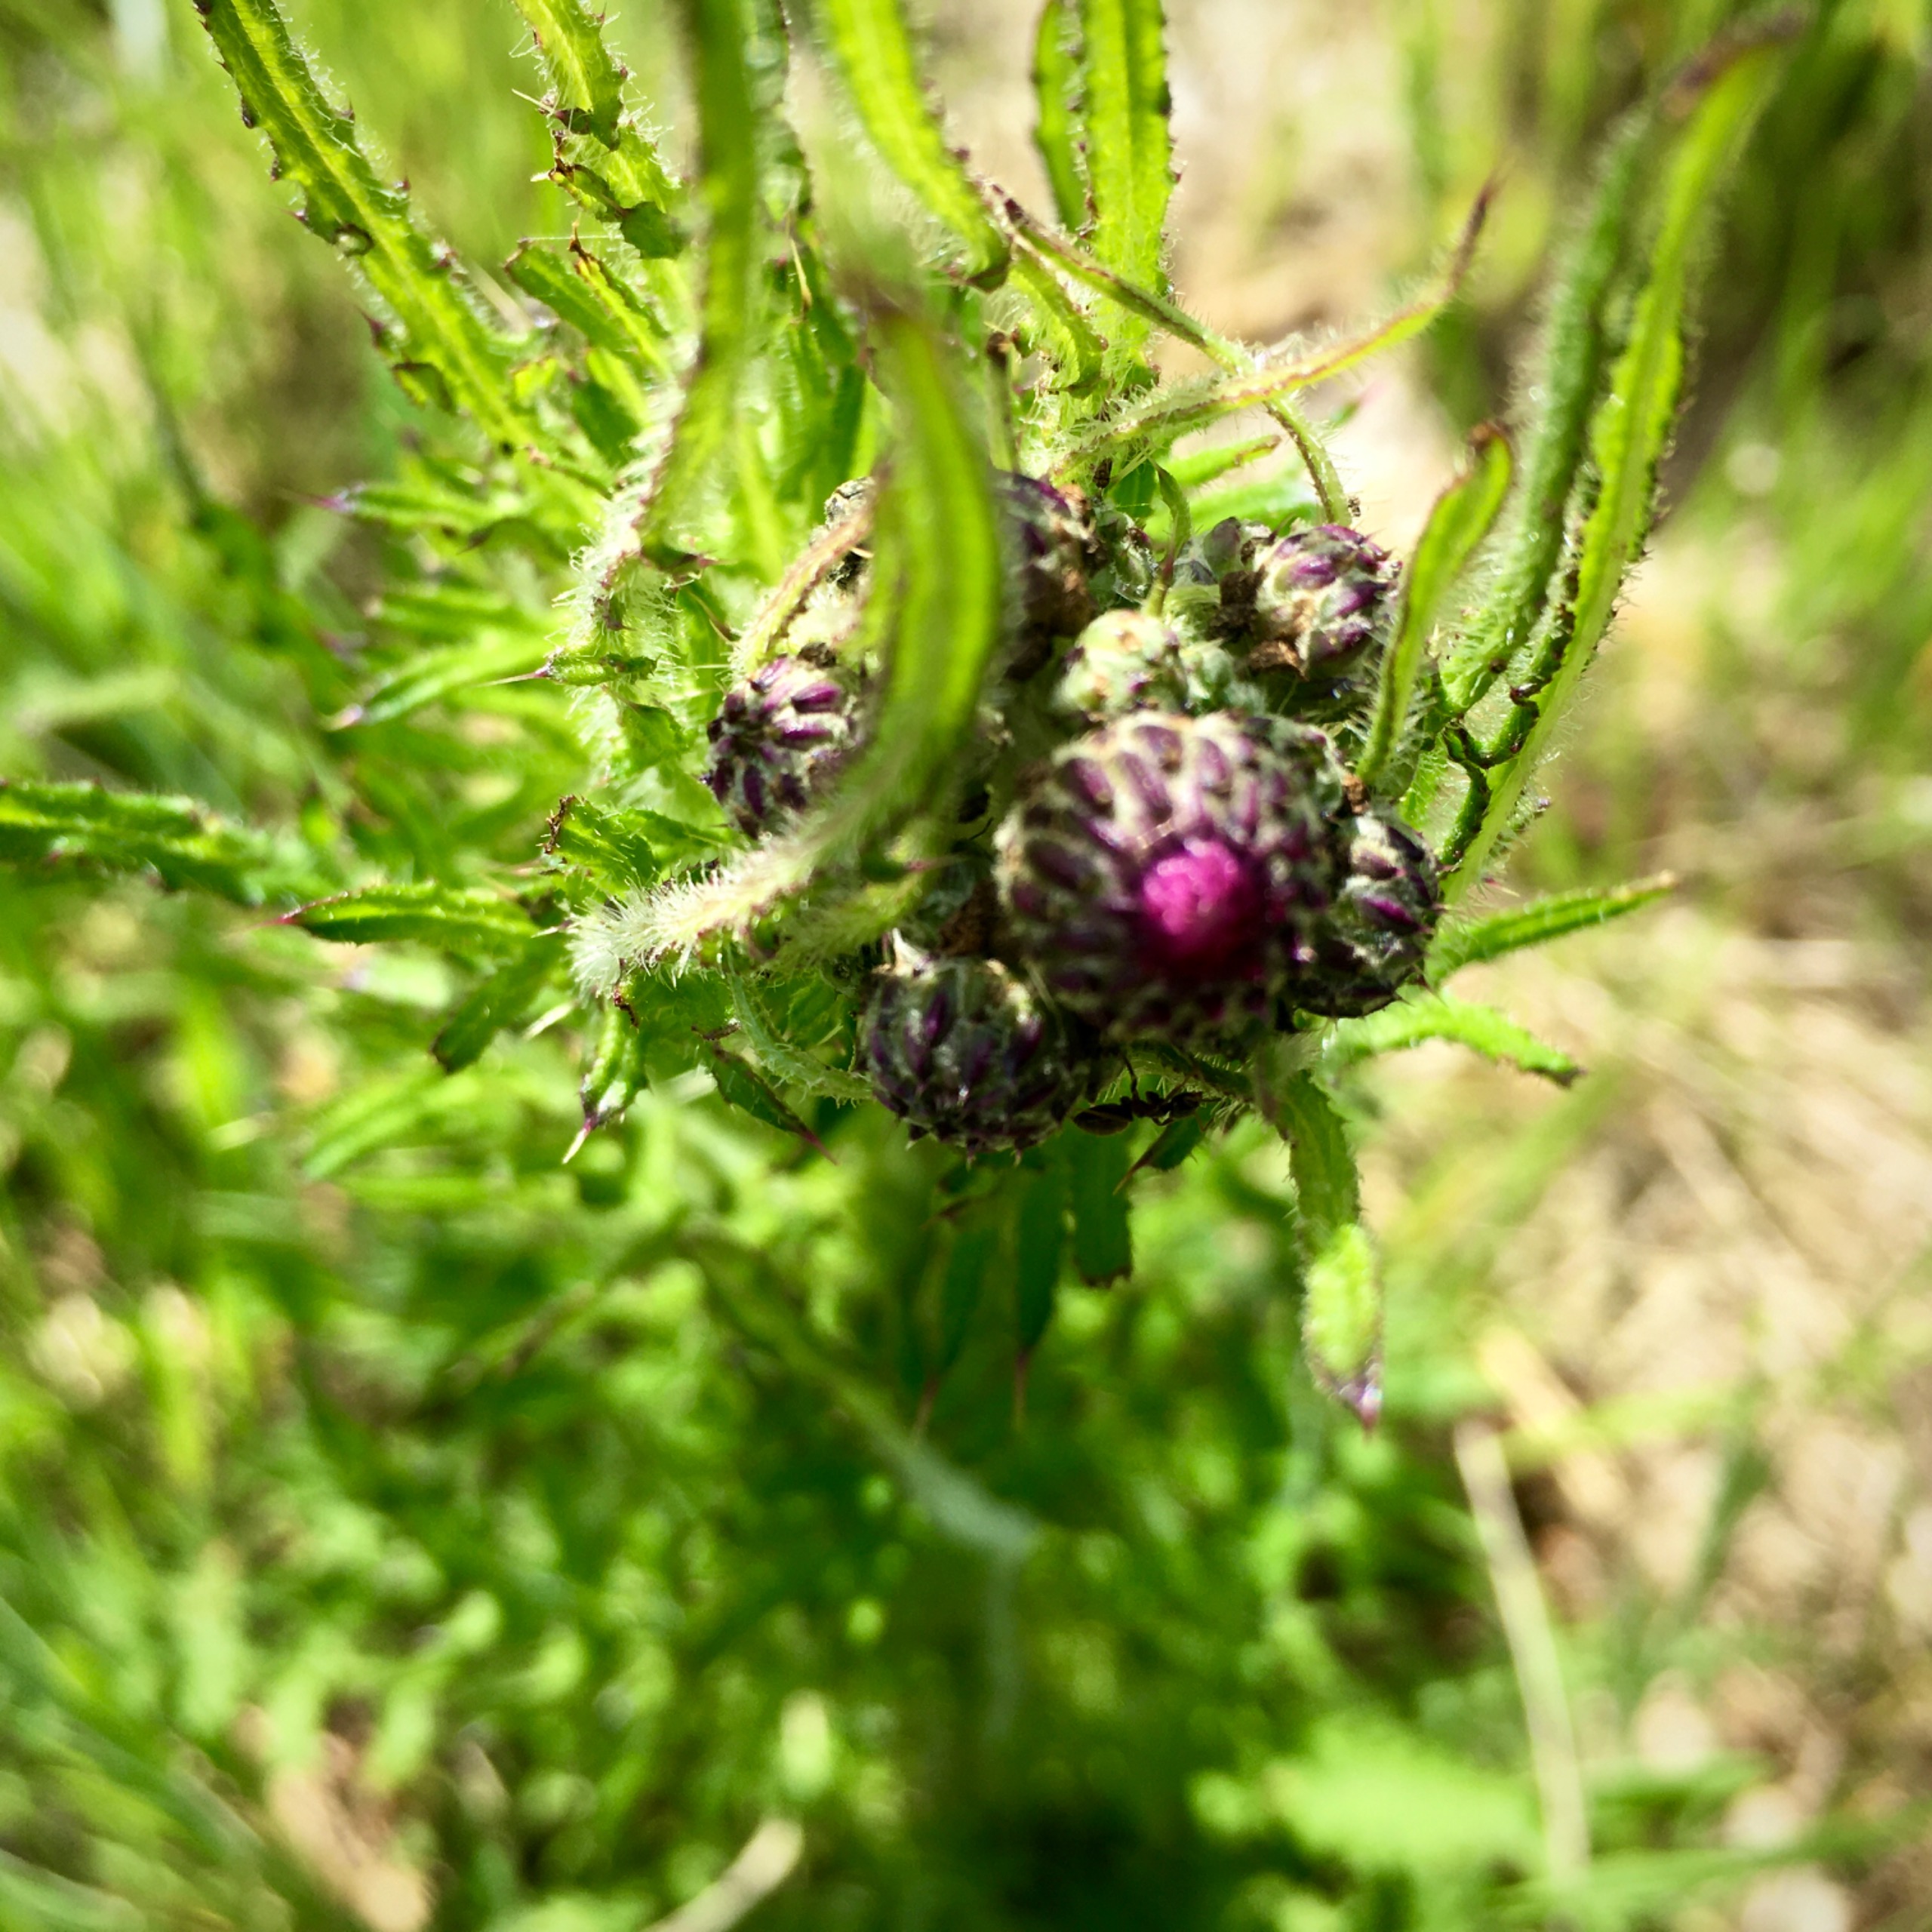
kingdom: Plantae
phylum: Tracheophyta
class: Magnoliopsida
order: Asterales
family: Asteraceae
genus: Cirsium
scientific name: Cirsium palustre
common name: Kær-tidsel
